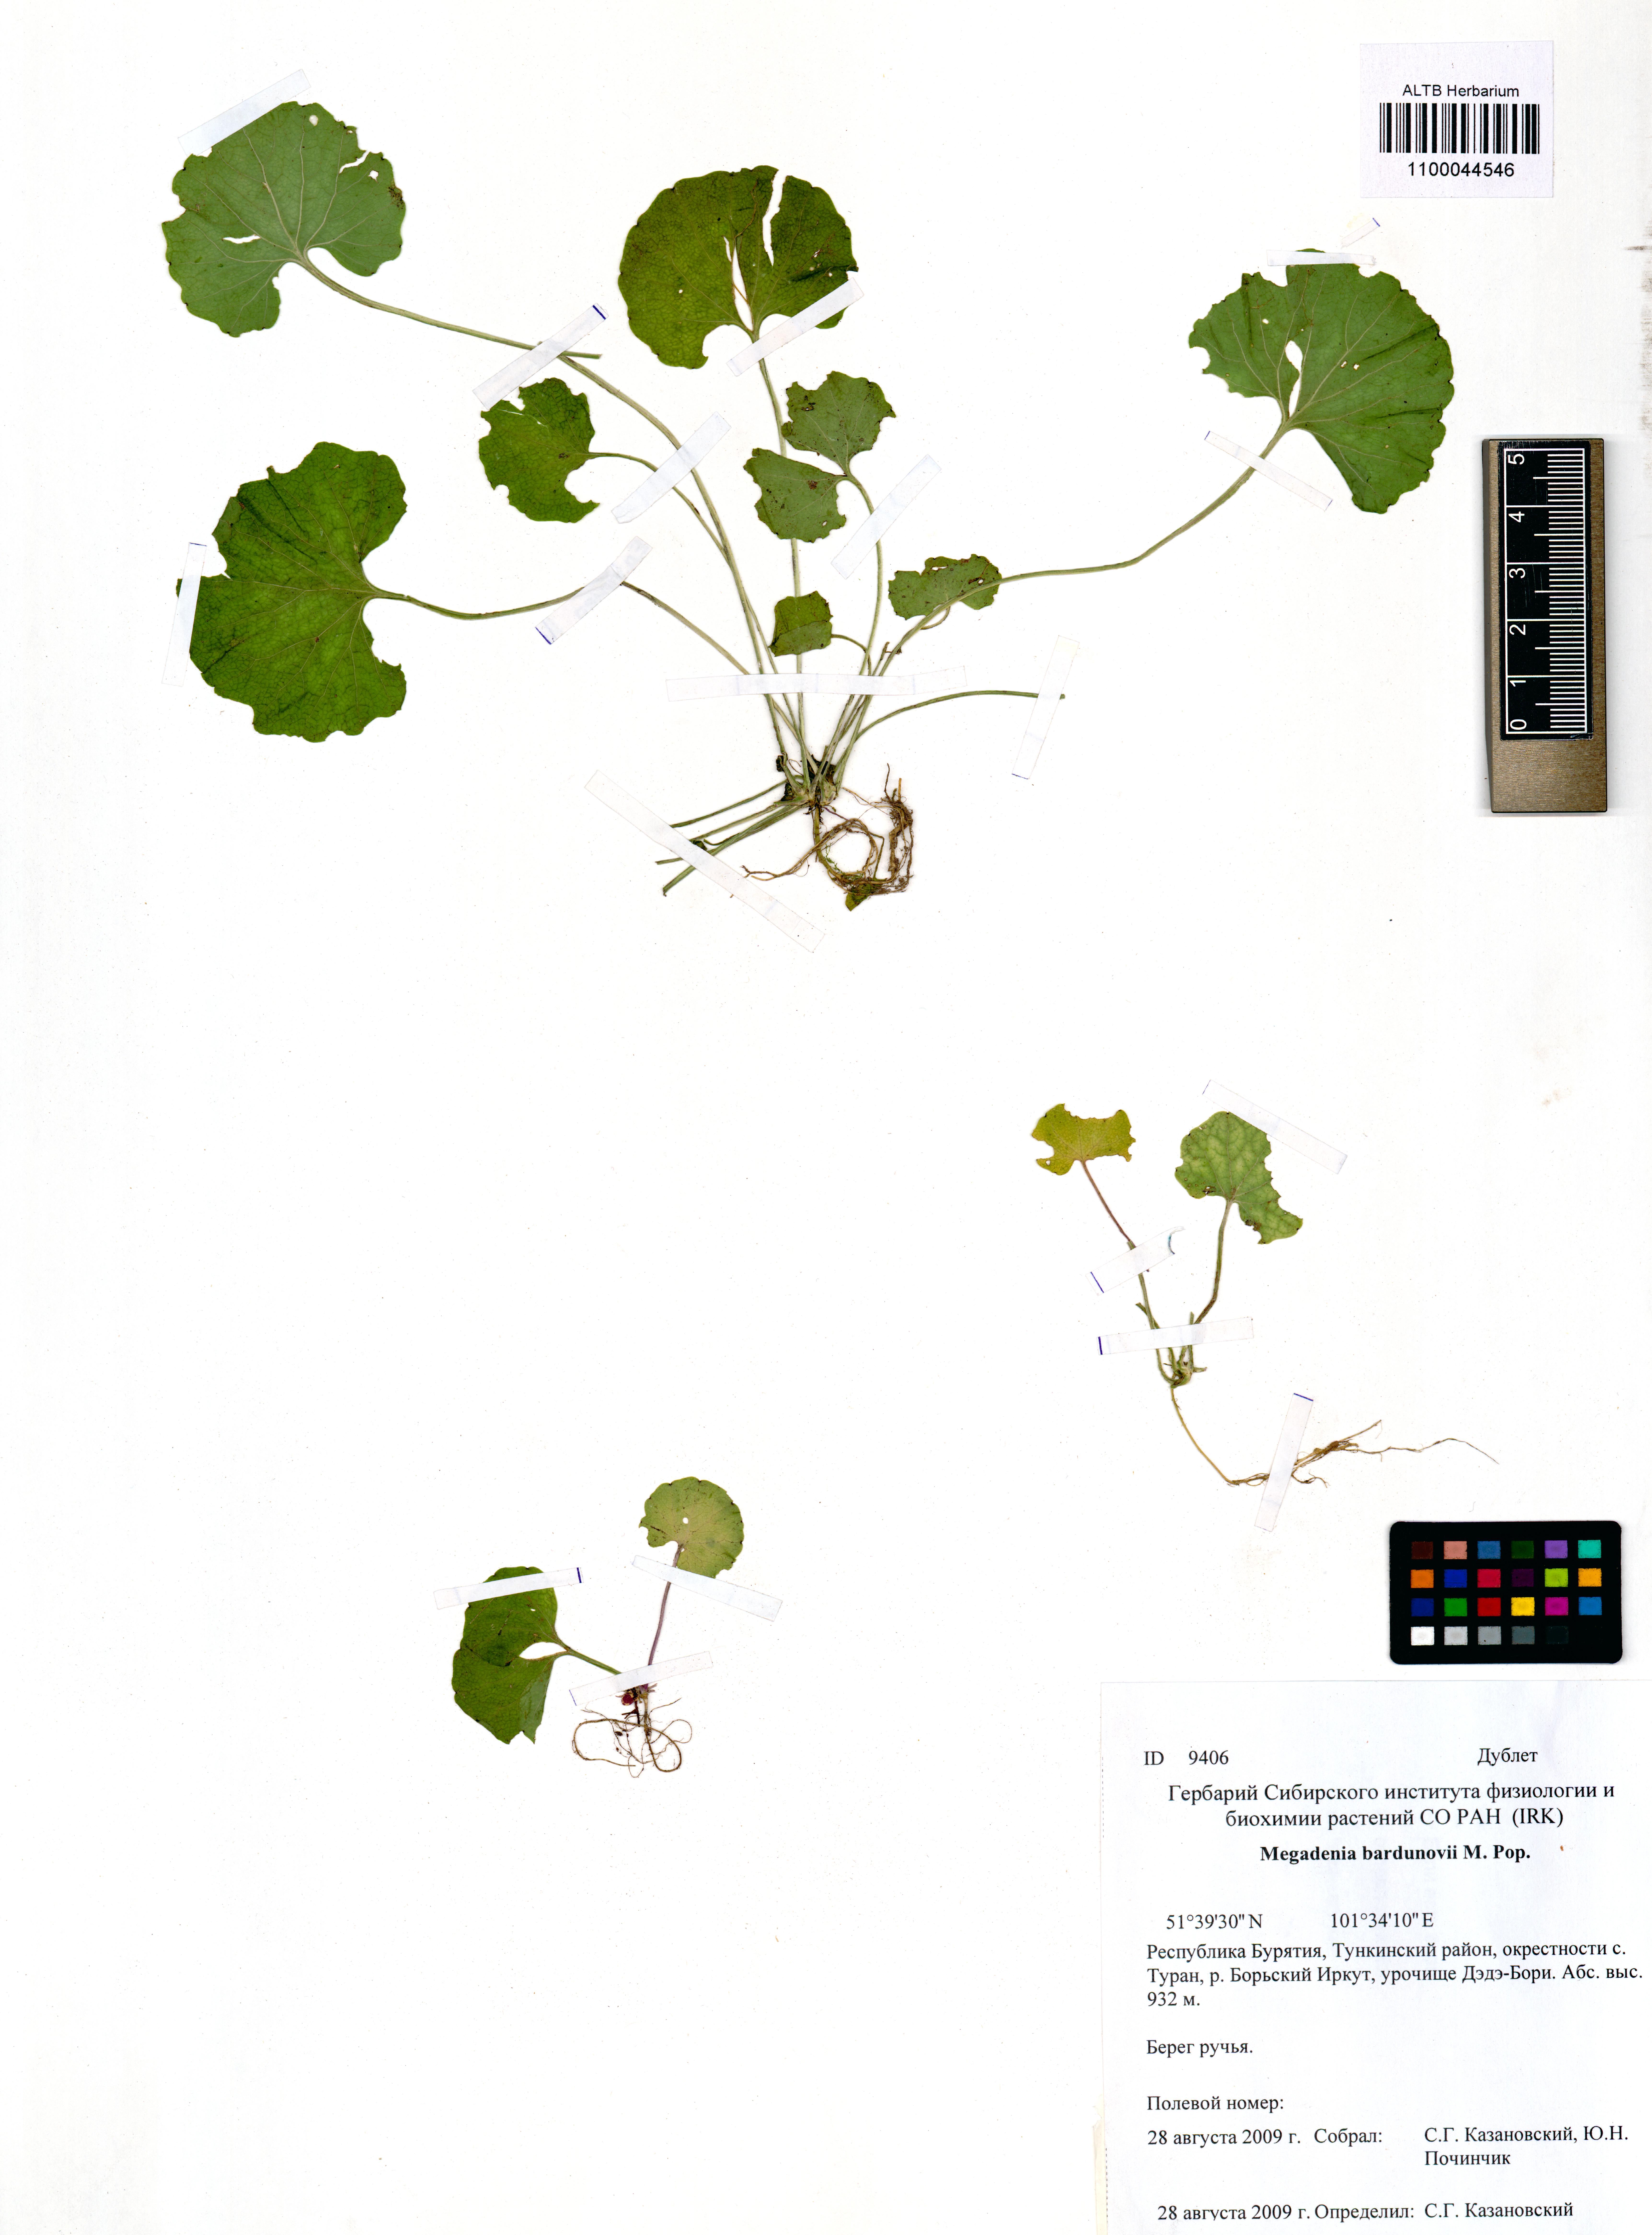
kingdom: Plantae
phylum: Tracheophyta
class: Magnoliopsida
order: Brassicales
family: Brassicaceae
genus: Megadenia
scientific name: Megadenia pygmaea
